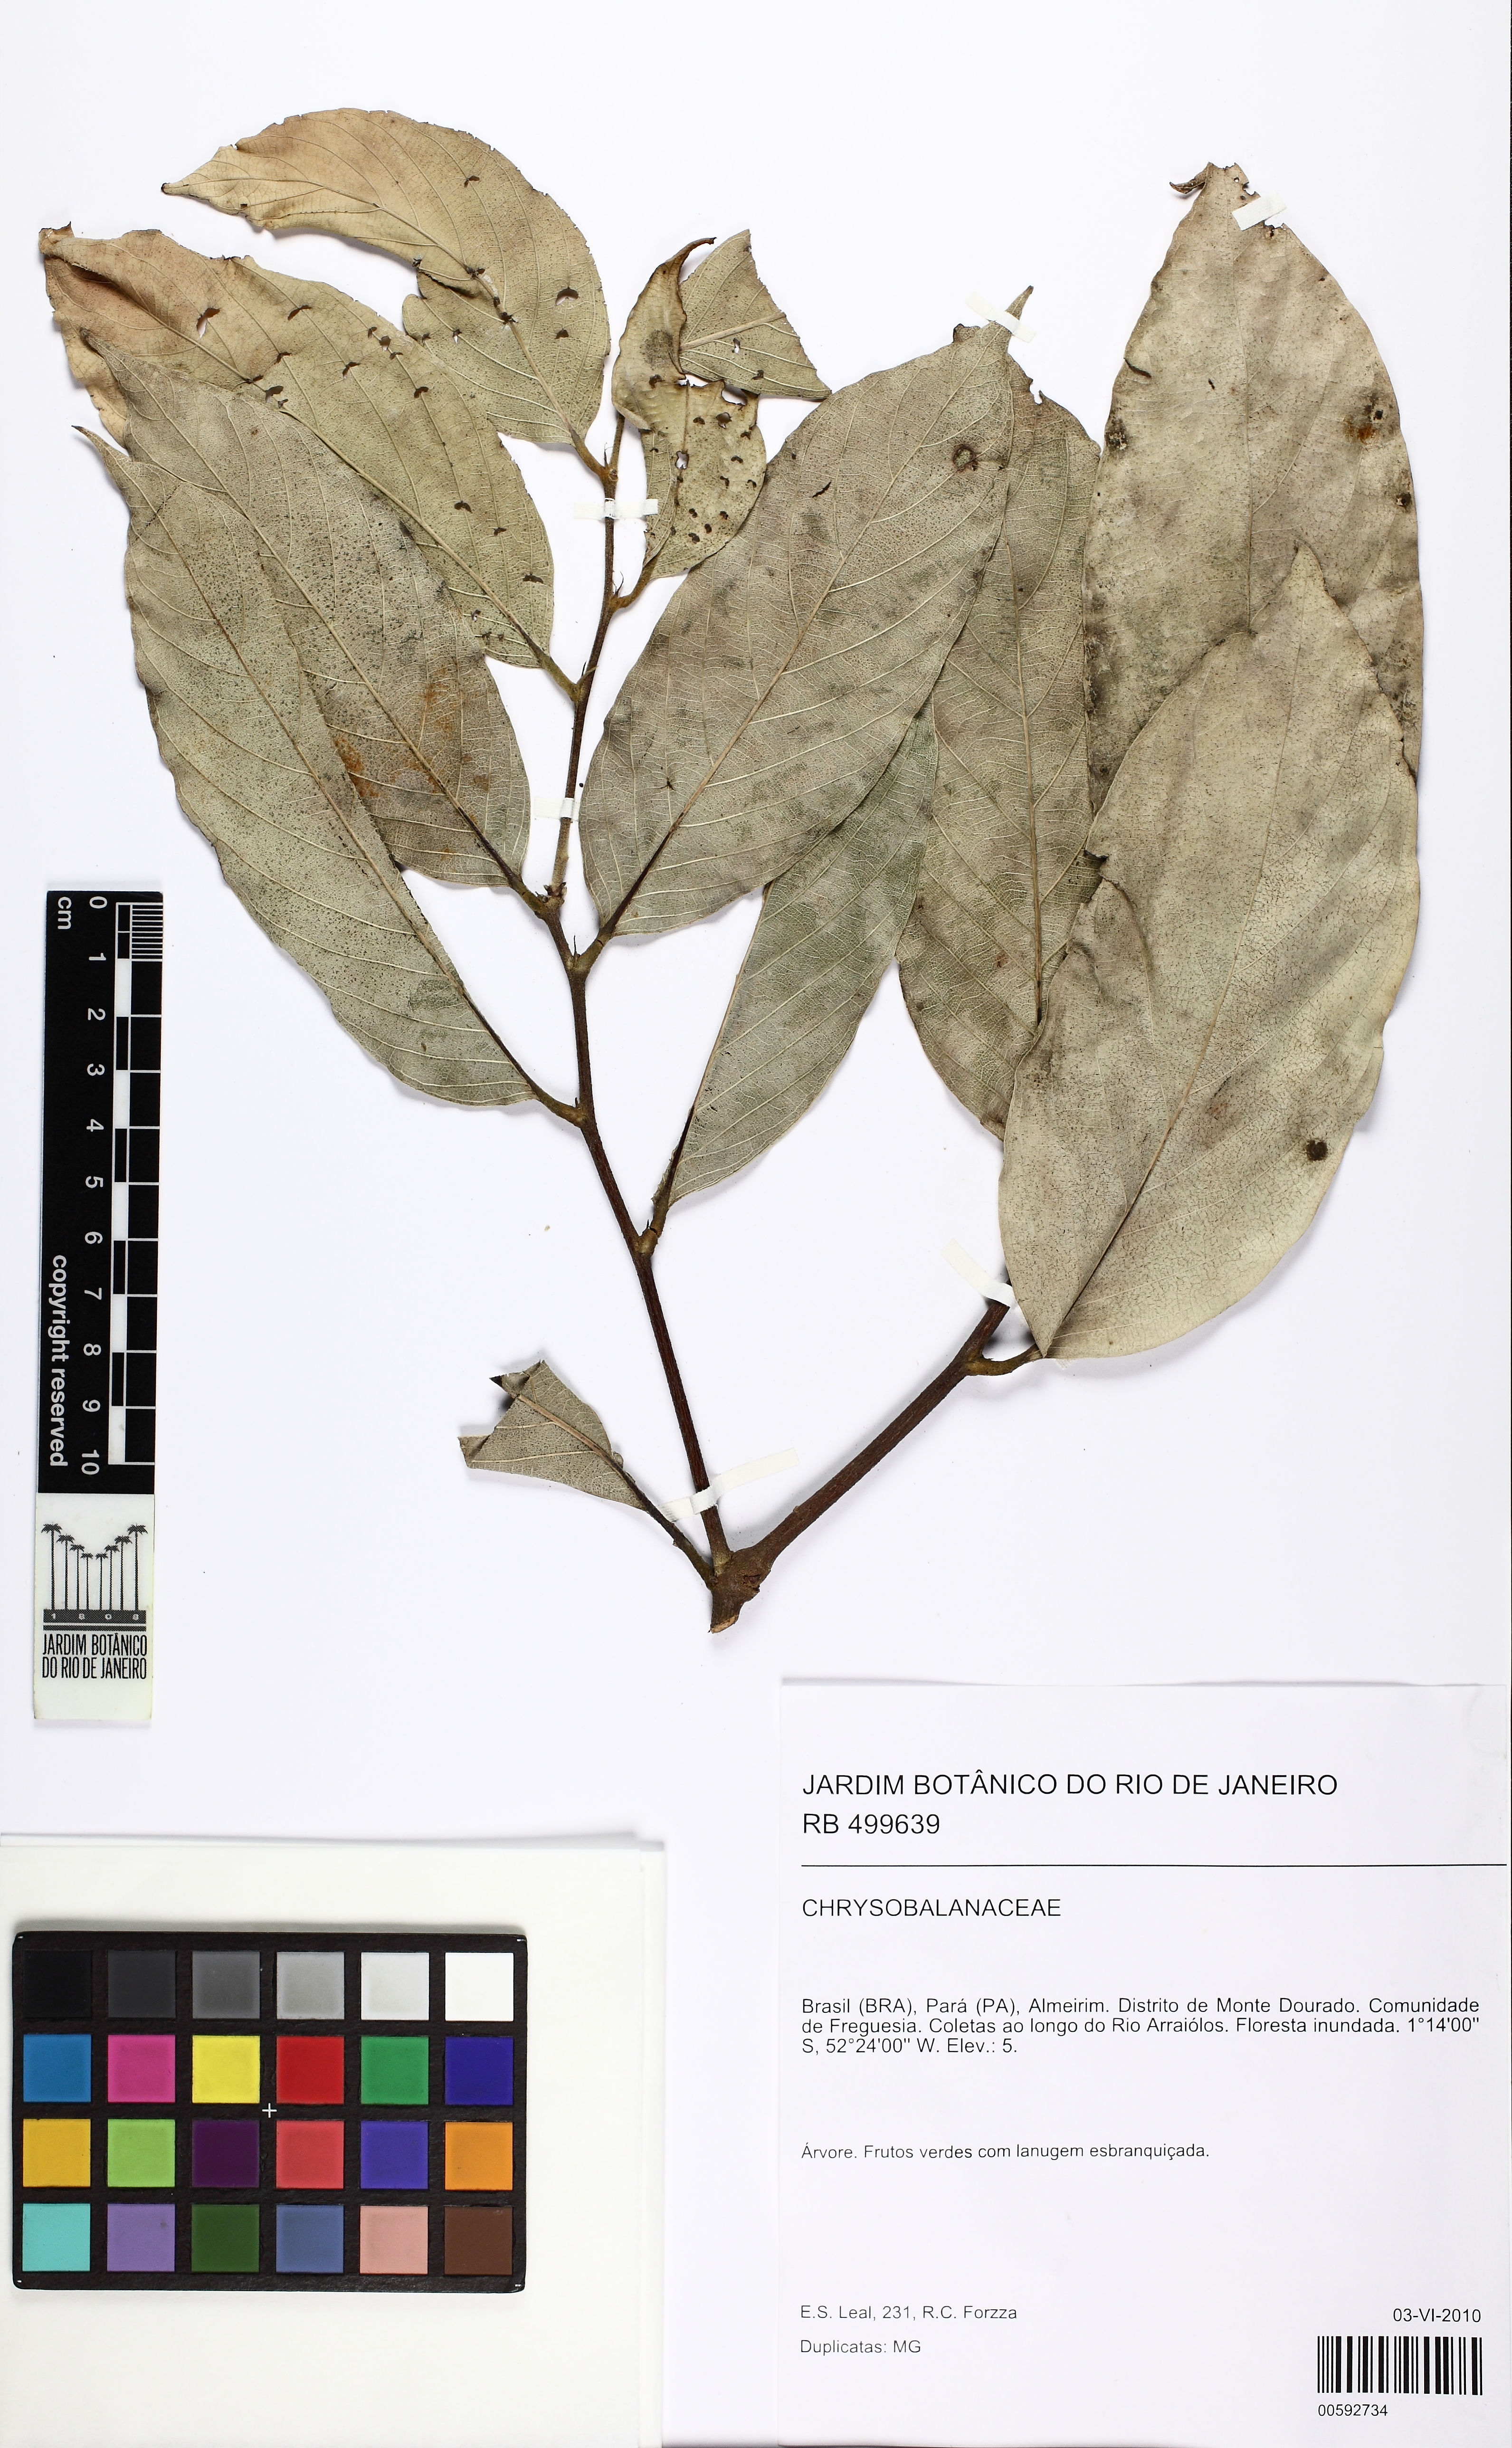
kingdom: Plantae
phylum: Tracheophyta
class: Magnoliopsida
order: Malpighiales
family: Chrysobalanaceae
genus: Leptobalanus
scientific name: Leptobalanus longistylus
